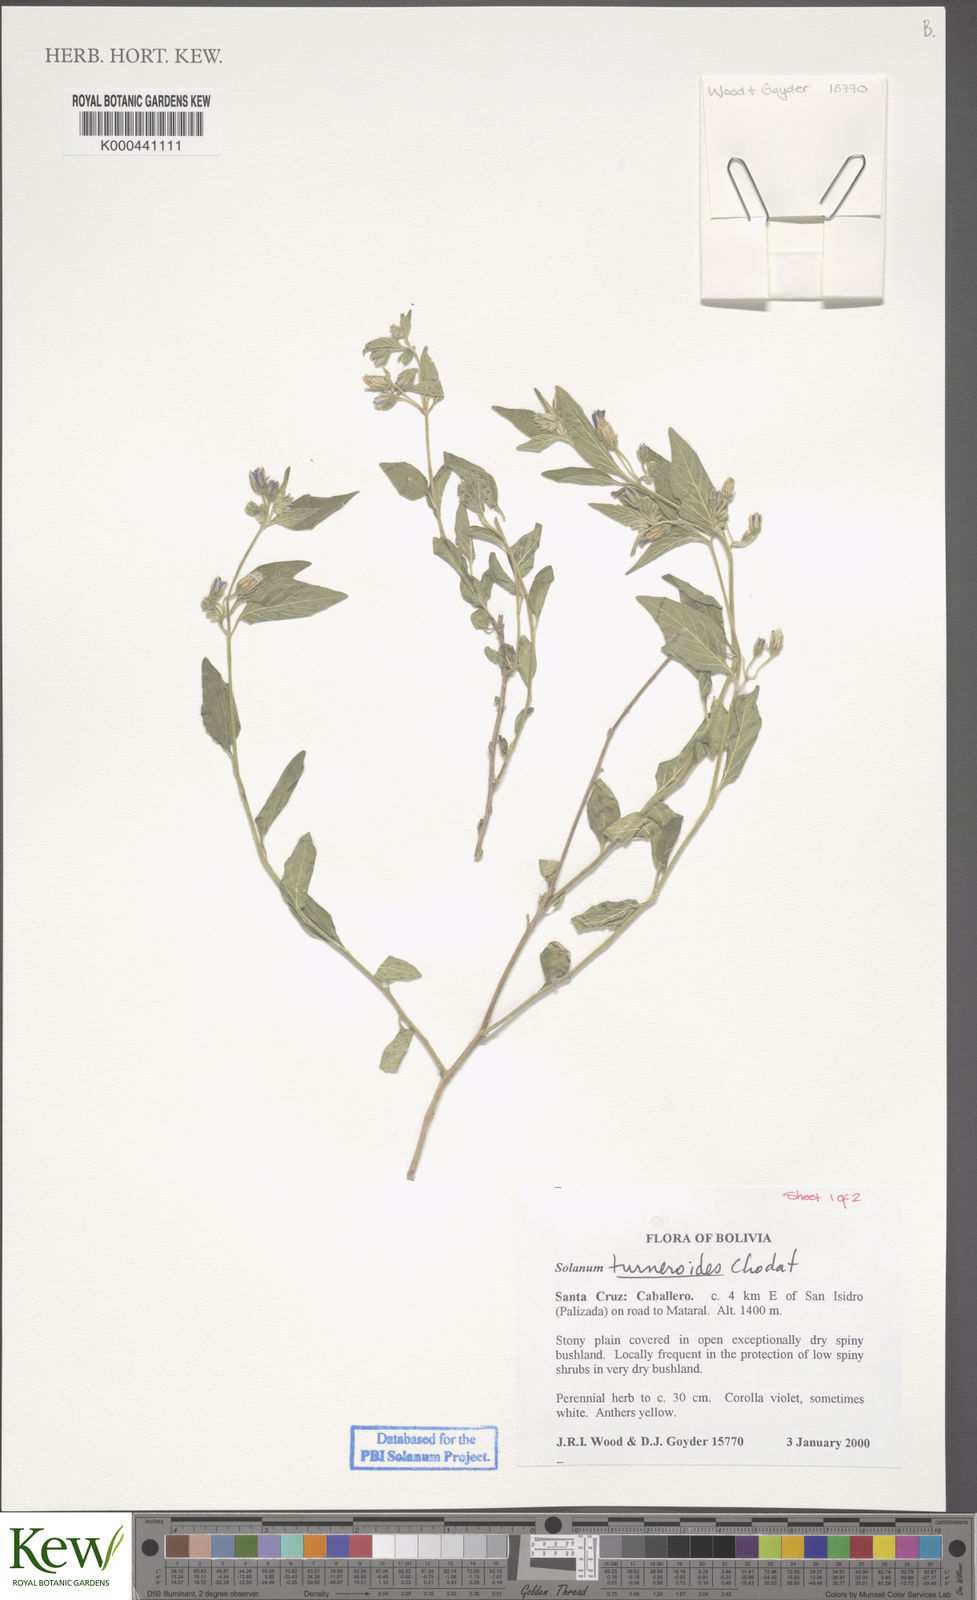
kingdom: Plantae
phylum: Tracheophyta
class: Magnoliopsida
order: Solanales
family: Solanaceae
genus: Solanum
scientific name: Solanum turneroides
